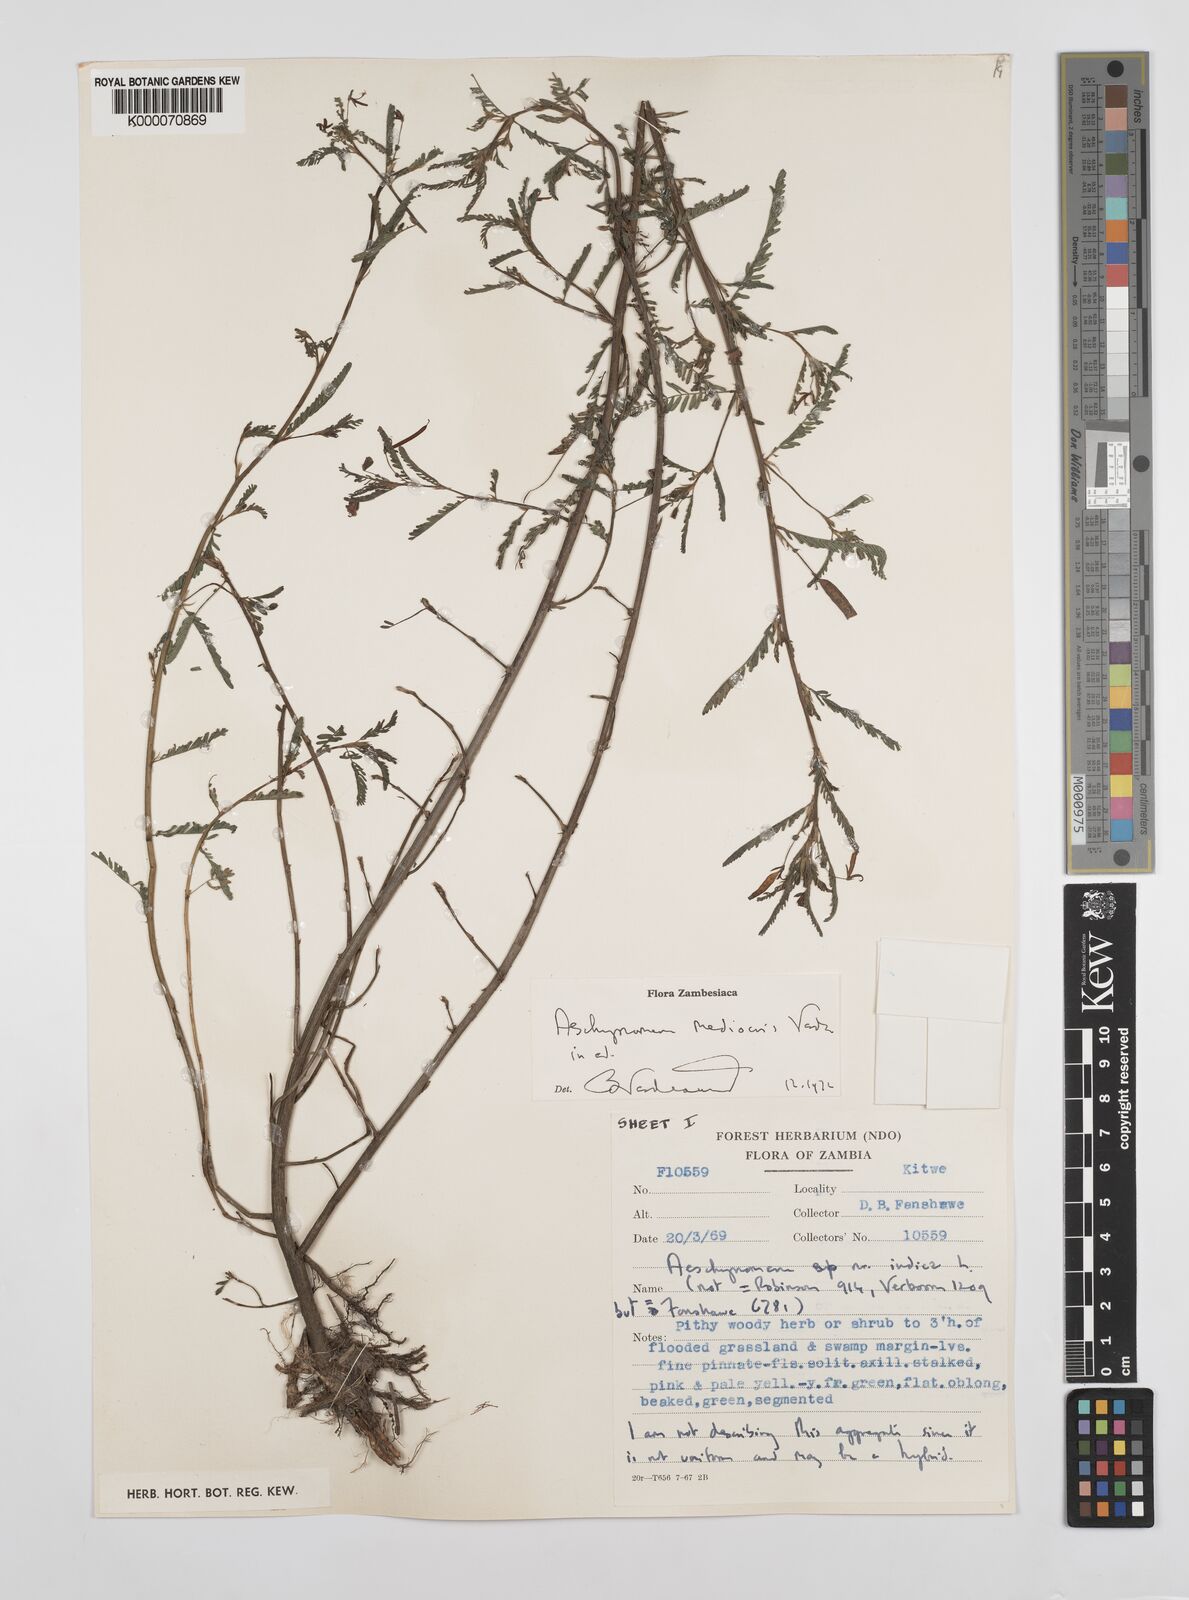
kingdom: Plantae
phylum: Tracheophyta
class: Magnoliopsida
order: Fabales
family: Fabaceae
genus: Aeschynomene
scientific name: Aeschynomene mediocris
